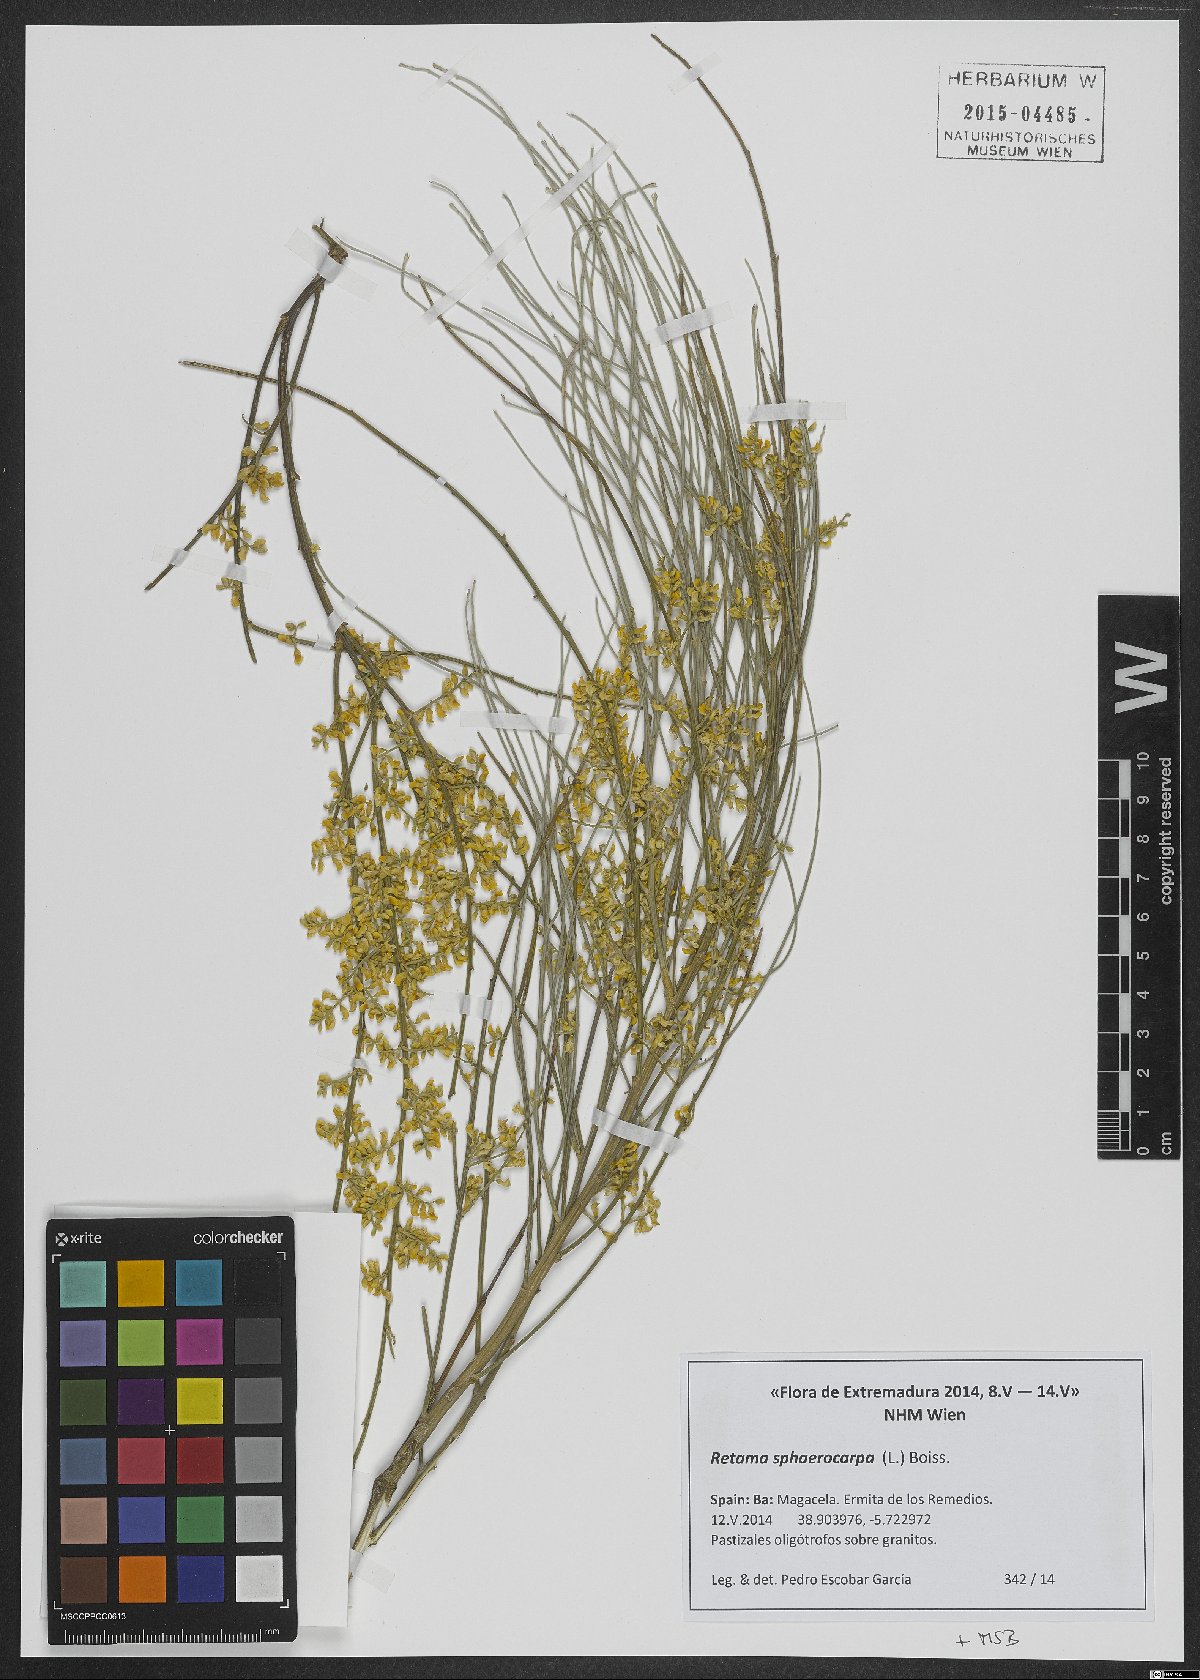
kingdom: Plantae
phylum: Tracheophyta
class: Magnoliopsida
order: Fabales
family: Fabaceae
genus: Retama
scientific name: Retama sphaerocarpa
